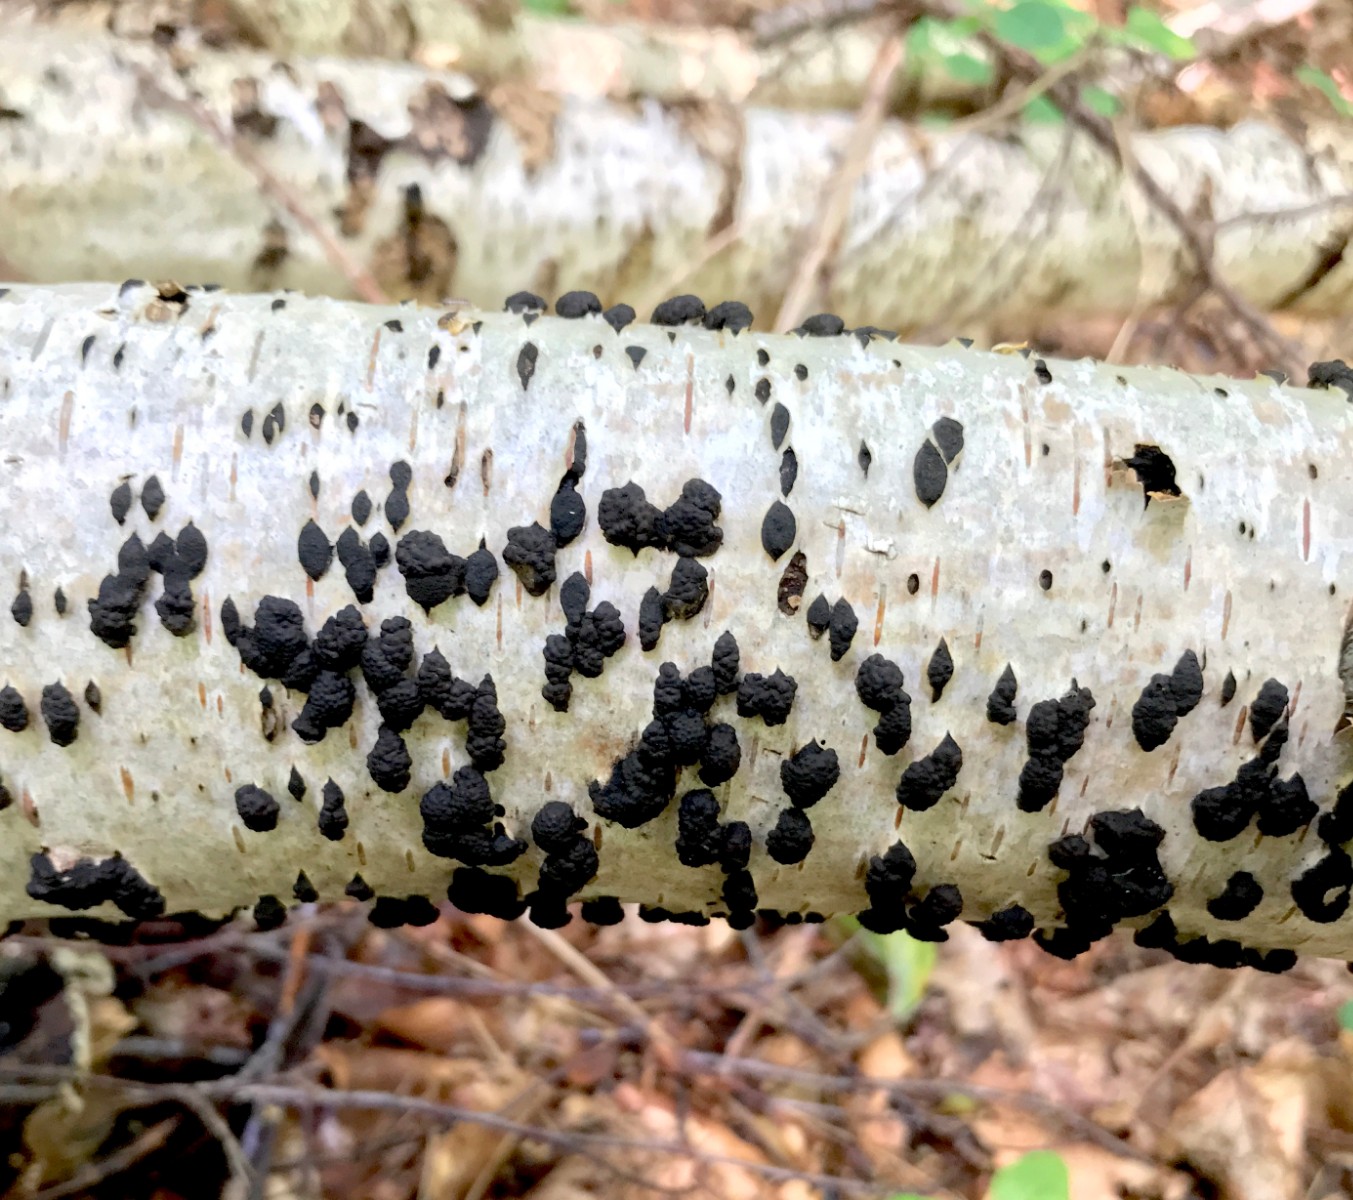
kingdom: Fungi
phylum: Ascomycota
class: Sordariomycetes
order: Xylariales
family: Hypoxylaceae
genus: Jackrogersella
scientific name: Jackrogersella multiformis
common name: foranderlig kulbær
